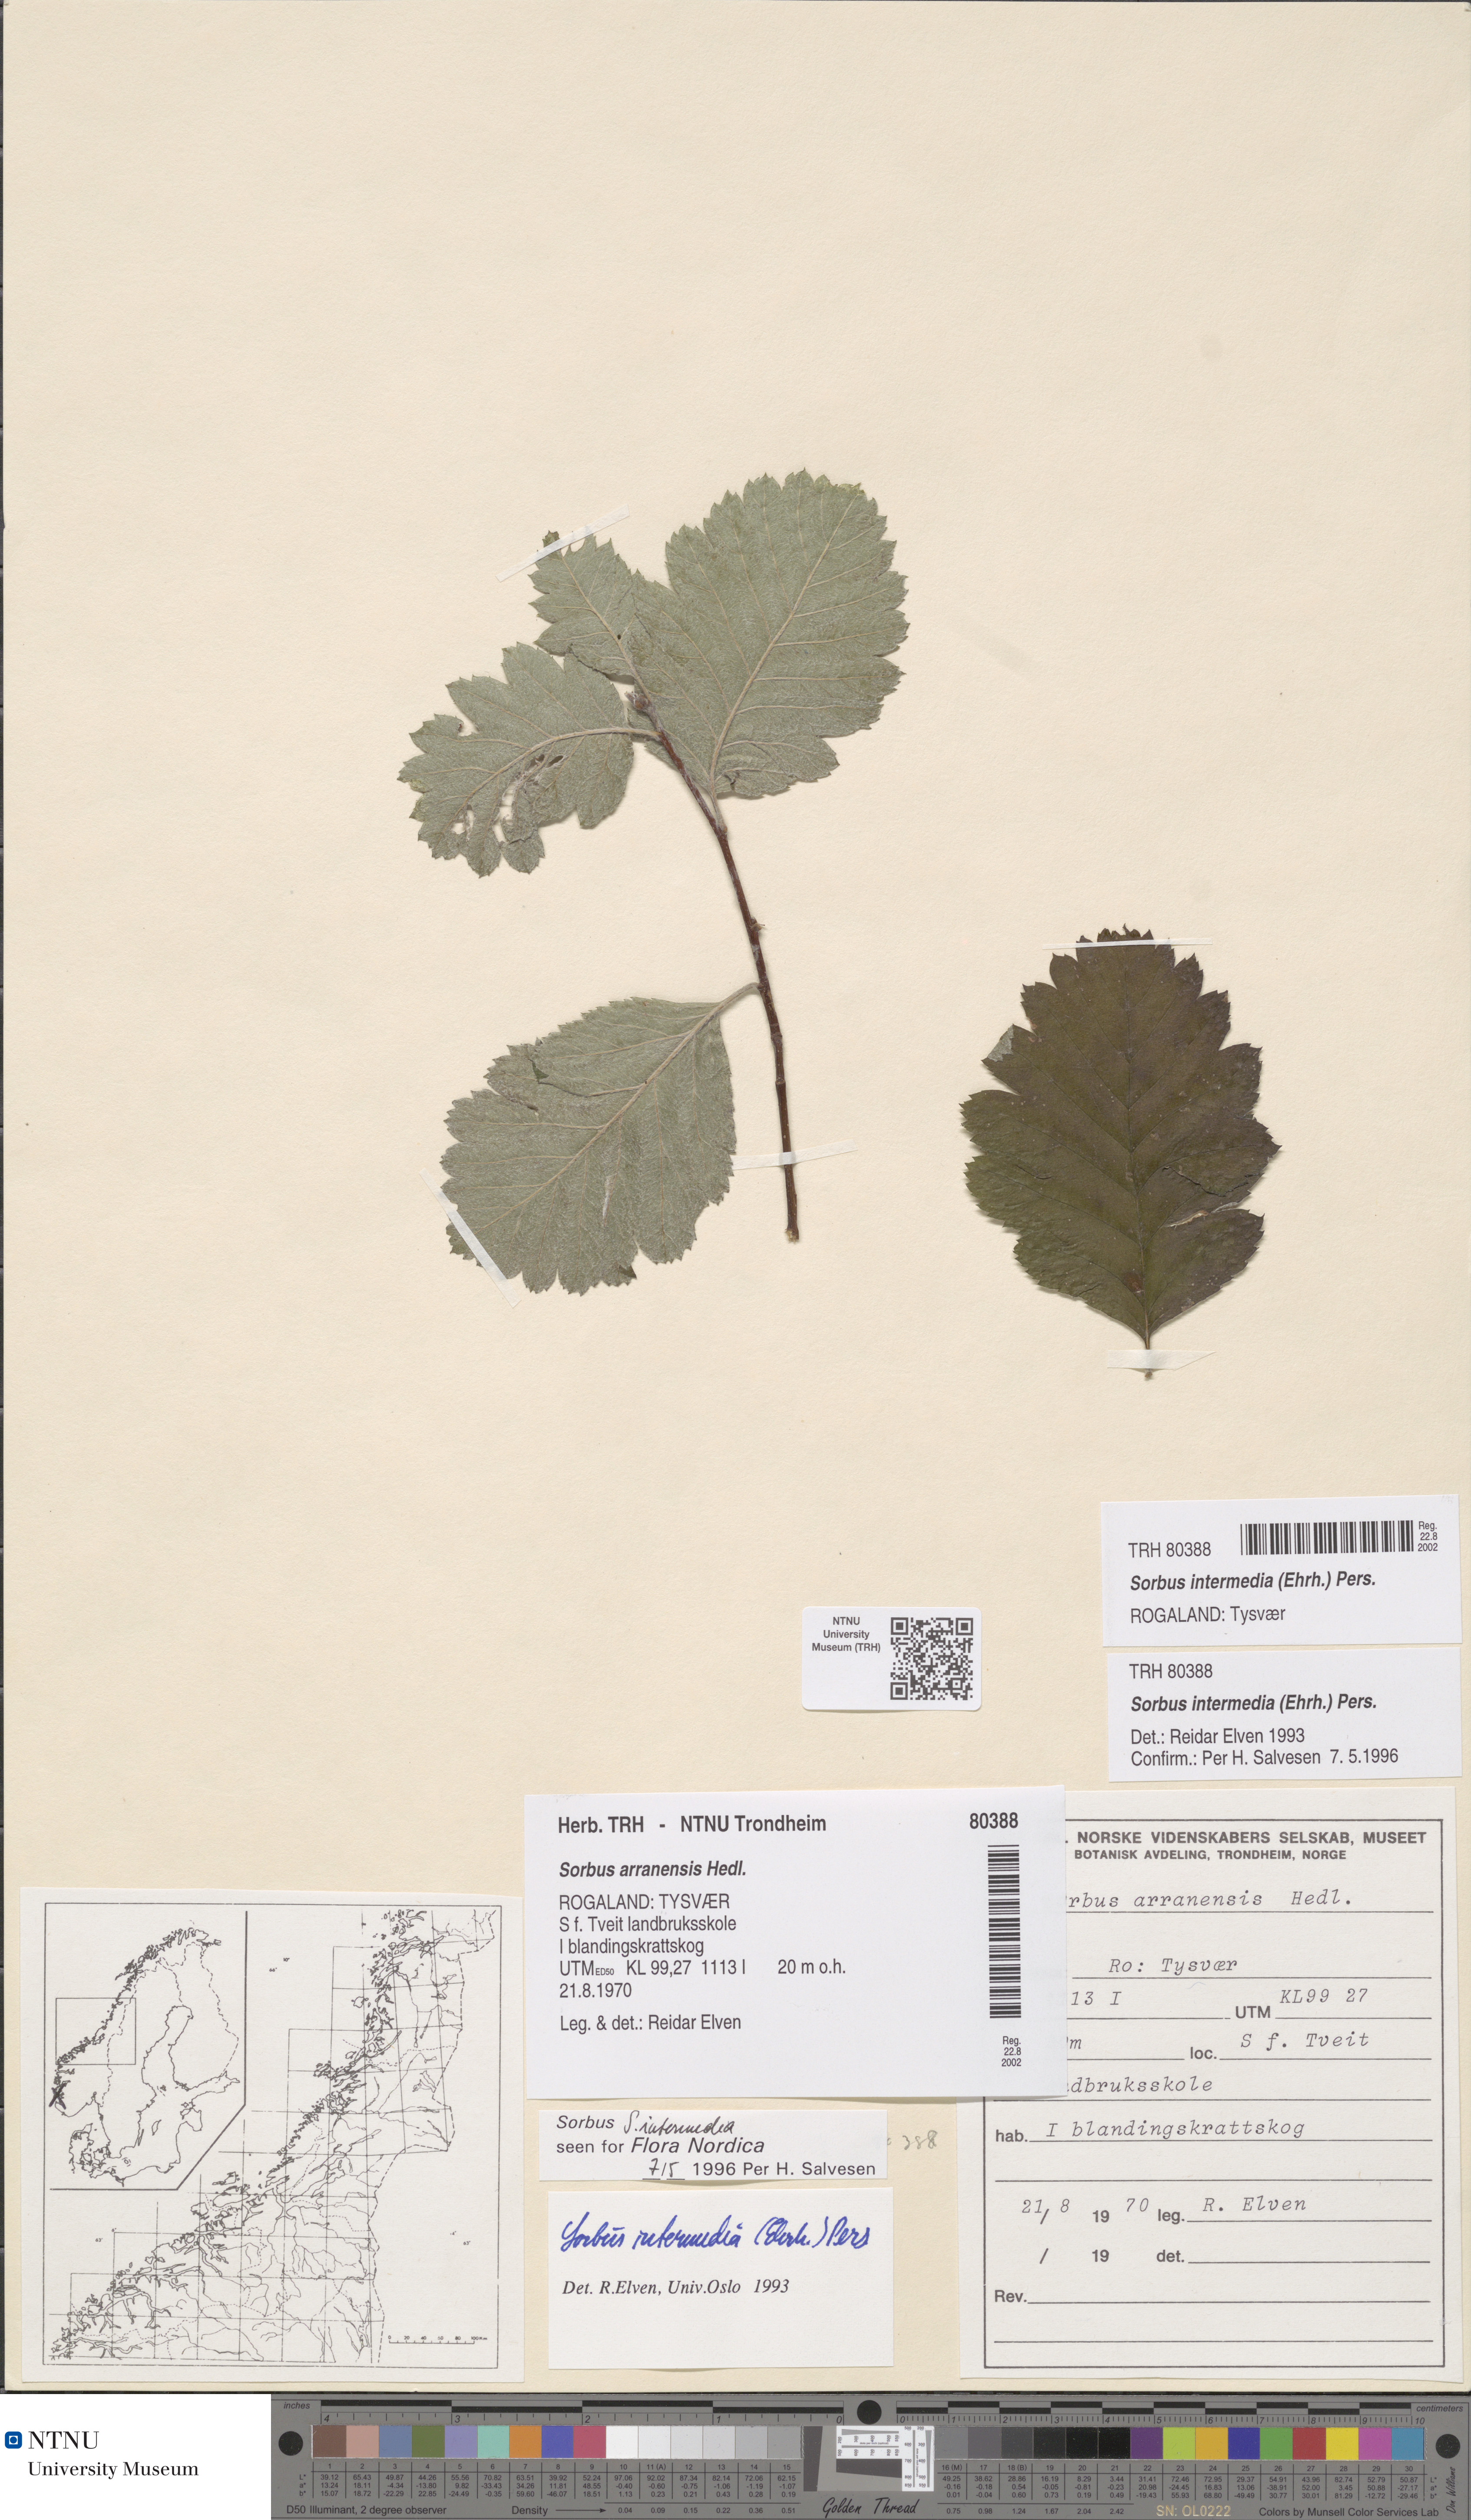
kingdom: Plantae
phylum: Tracheophyta
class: Magnoliopsida
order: Rosales
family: Rosaceae
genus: Scandosorbus
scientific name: Scandosorbus intermedia
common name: Swedish whitebeam
